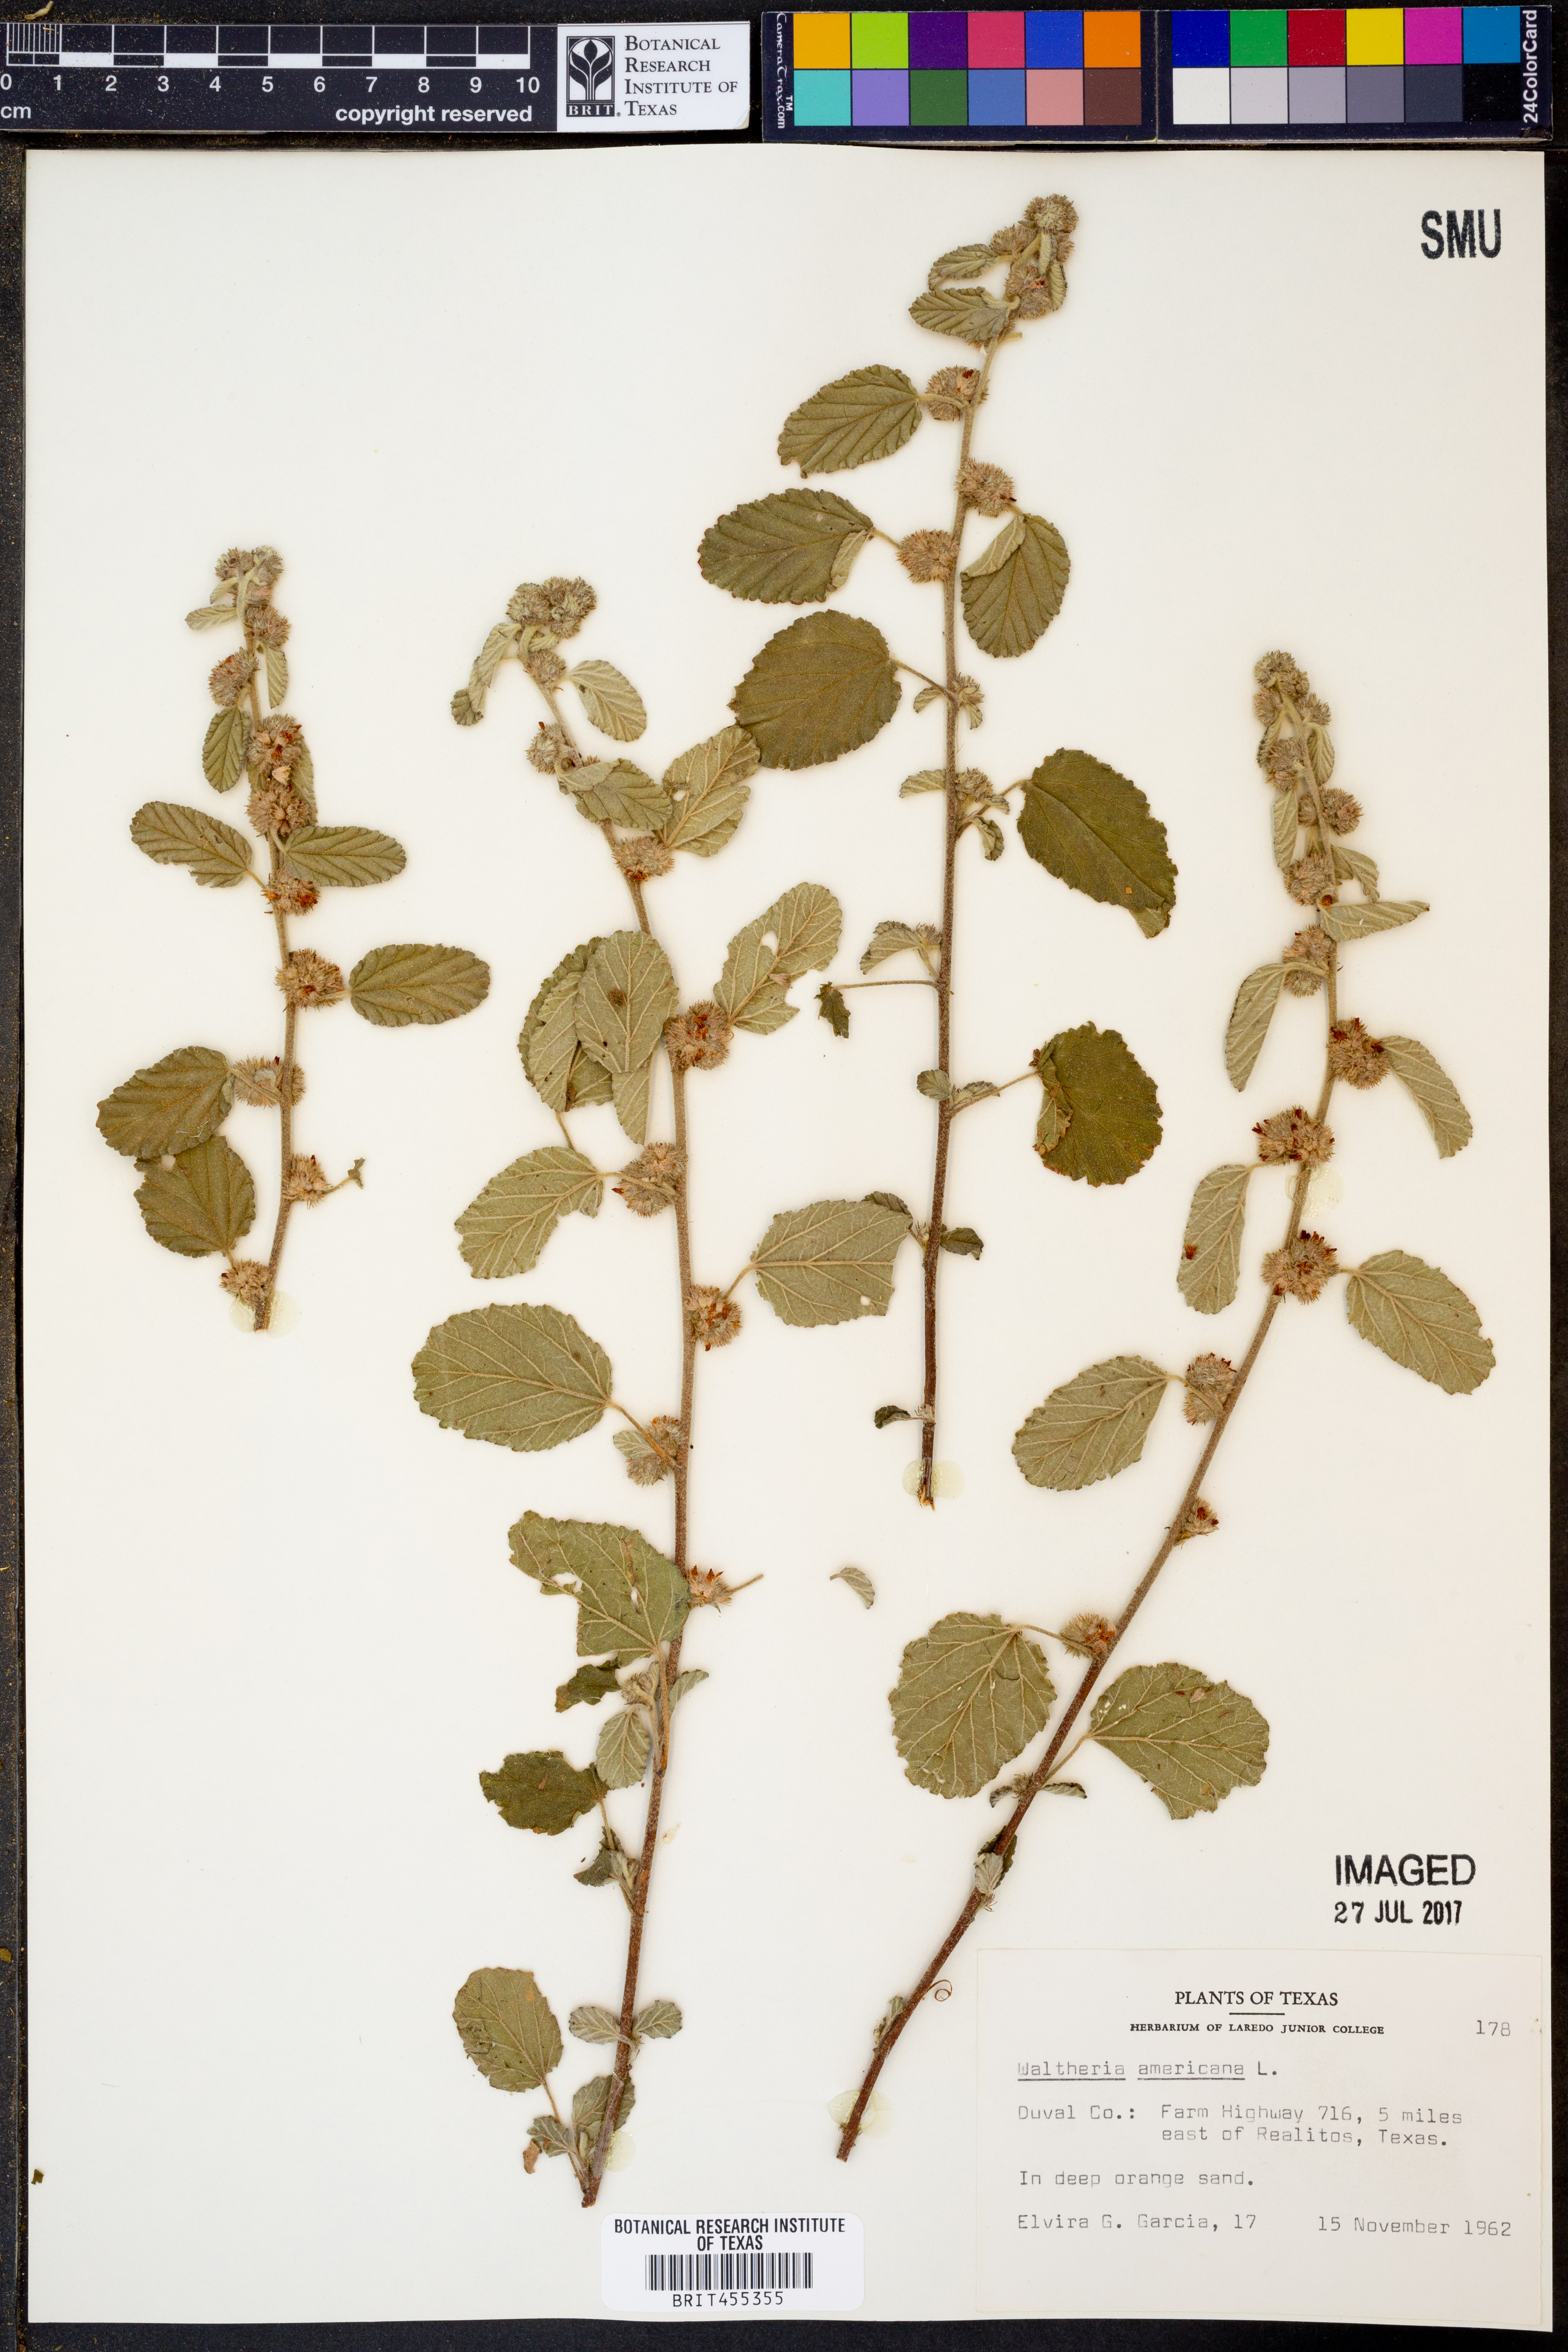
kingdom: Plantae
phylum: Tracheophyta
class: Magnoliopsida
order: Malvales
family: Malvaceae
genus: Waltheria
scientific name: Waltheria indica
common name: Leather-coat
